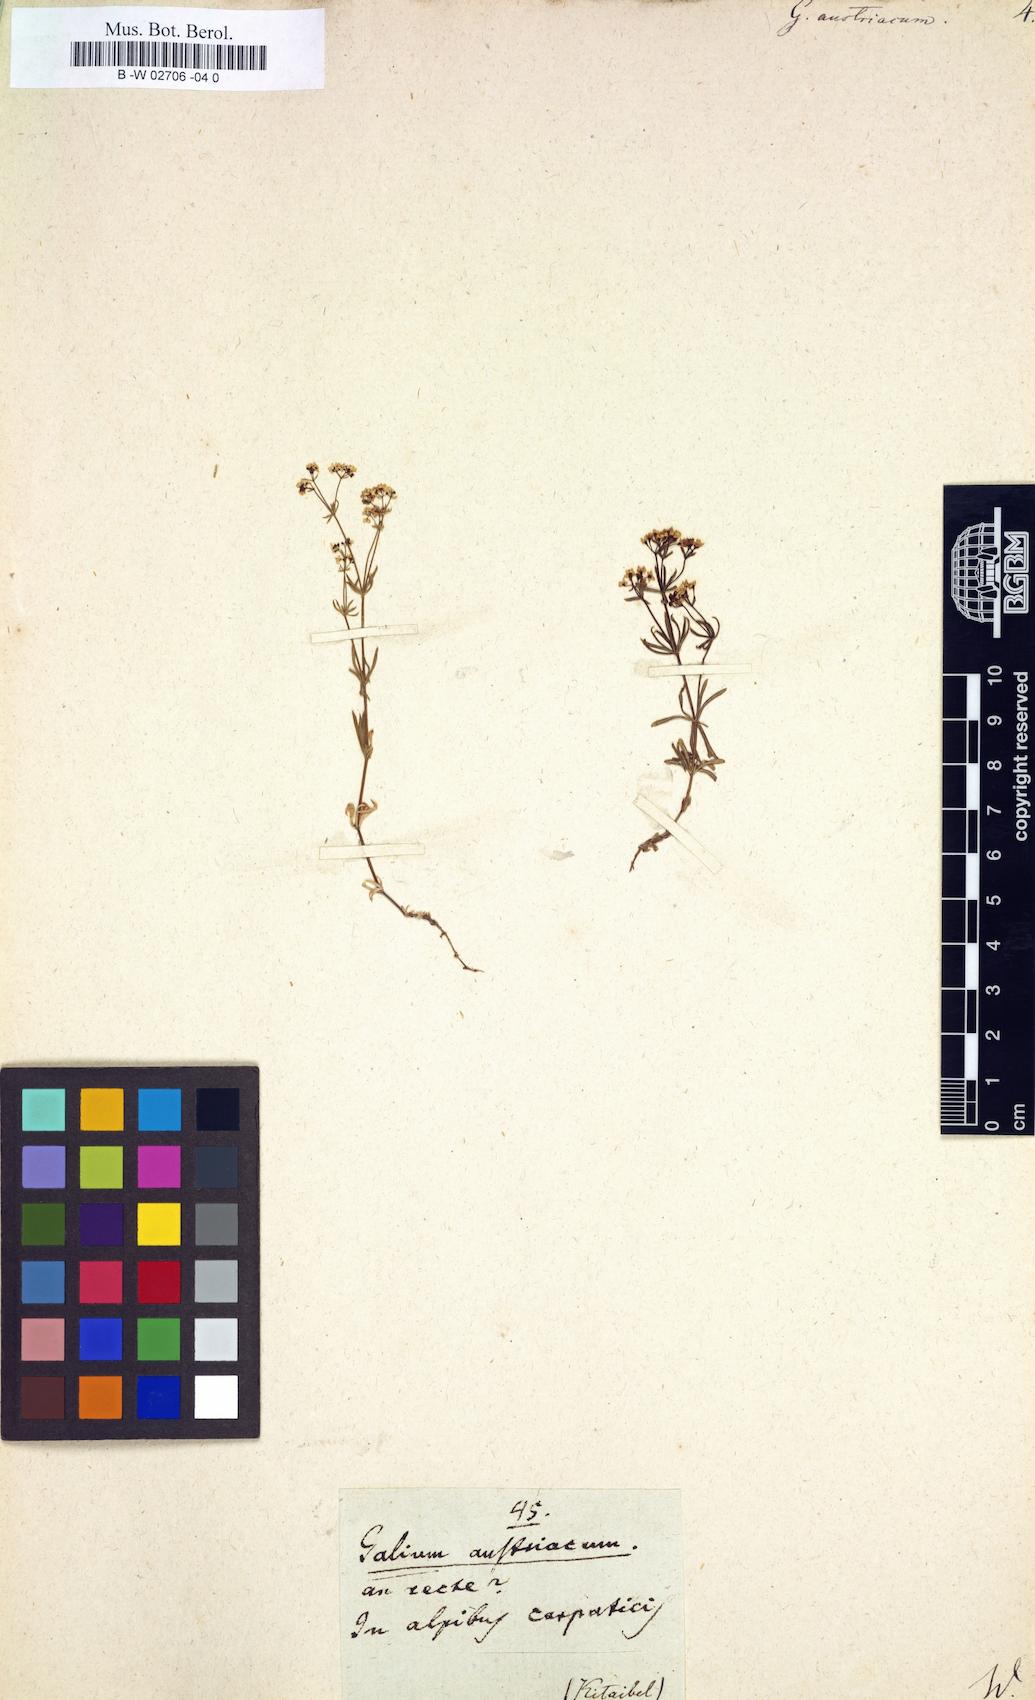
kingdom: Plantae
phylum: Tracheophyta
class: Magnoliopsida
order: Gentianales
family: Rubiaceae
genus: Galium
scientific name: Galium austriacum
